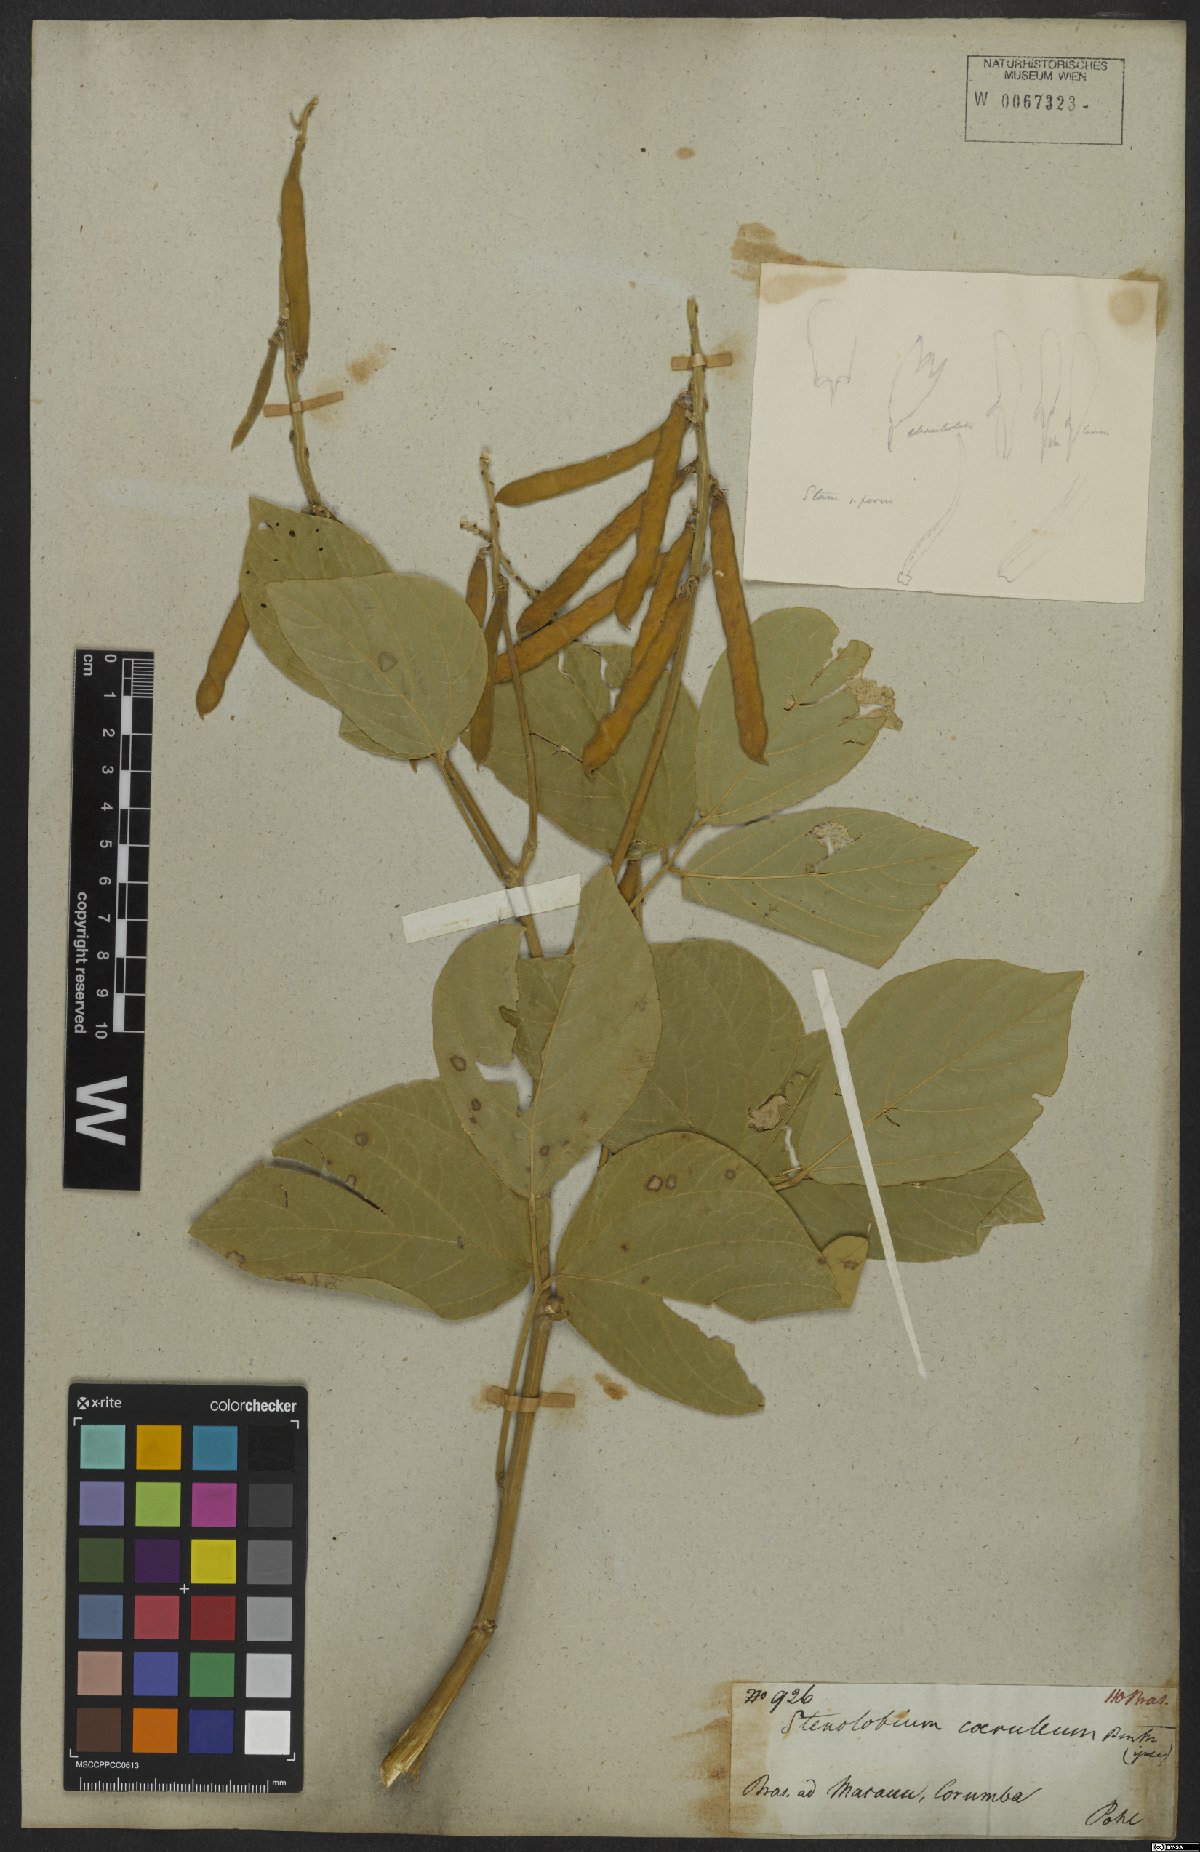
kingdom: Plantae
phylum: Tracheophyta
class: Magnoliopsida
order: Fabales
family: Fabaceae
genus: Calopogonium
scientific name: Calopogonium sericeum
